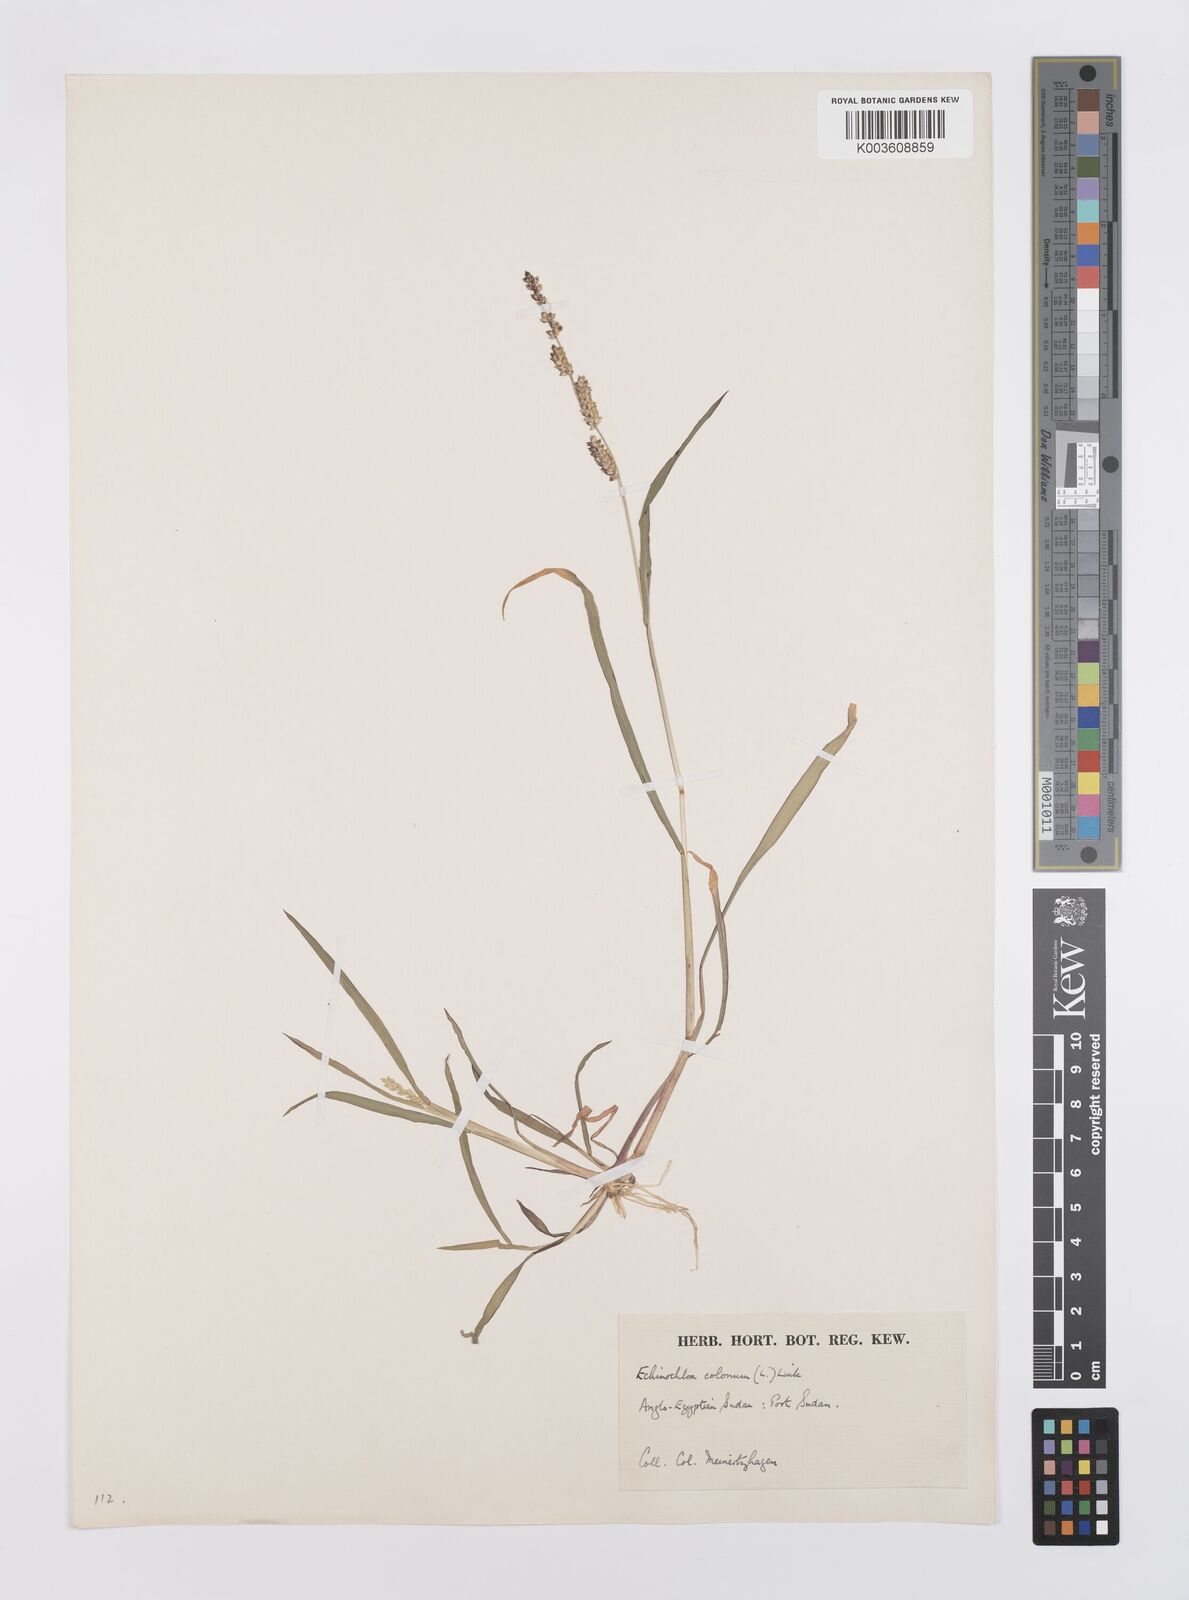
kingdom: Plantae
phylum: Tracheophyta
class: Liliopsida
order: Poales
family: Poaceae
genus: Echinochloa
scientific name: Echinochloa colonum
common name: Jungle rice
